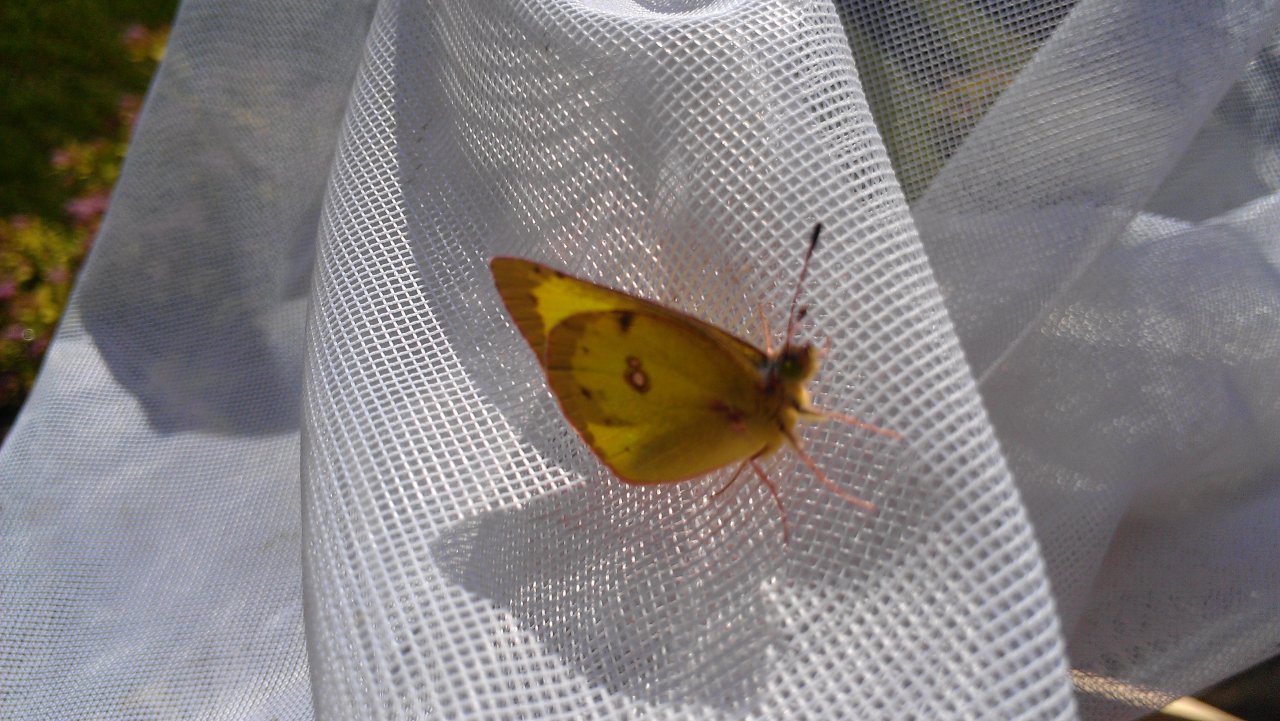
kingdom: Animalia
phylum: Arthropoda
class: Insecta
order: Lepidoptera
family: Pieridae
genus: Colias
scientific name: Colias philodice
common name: Clouded Sulphur
